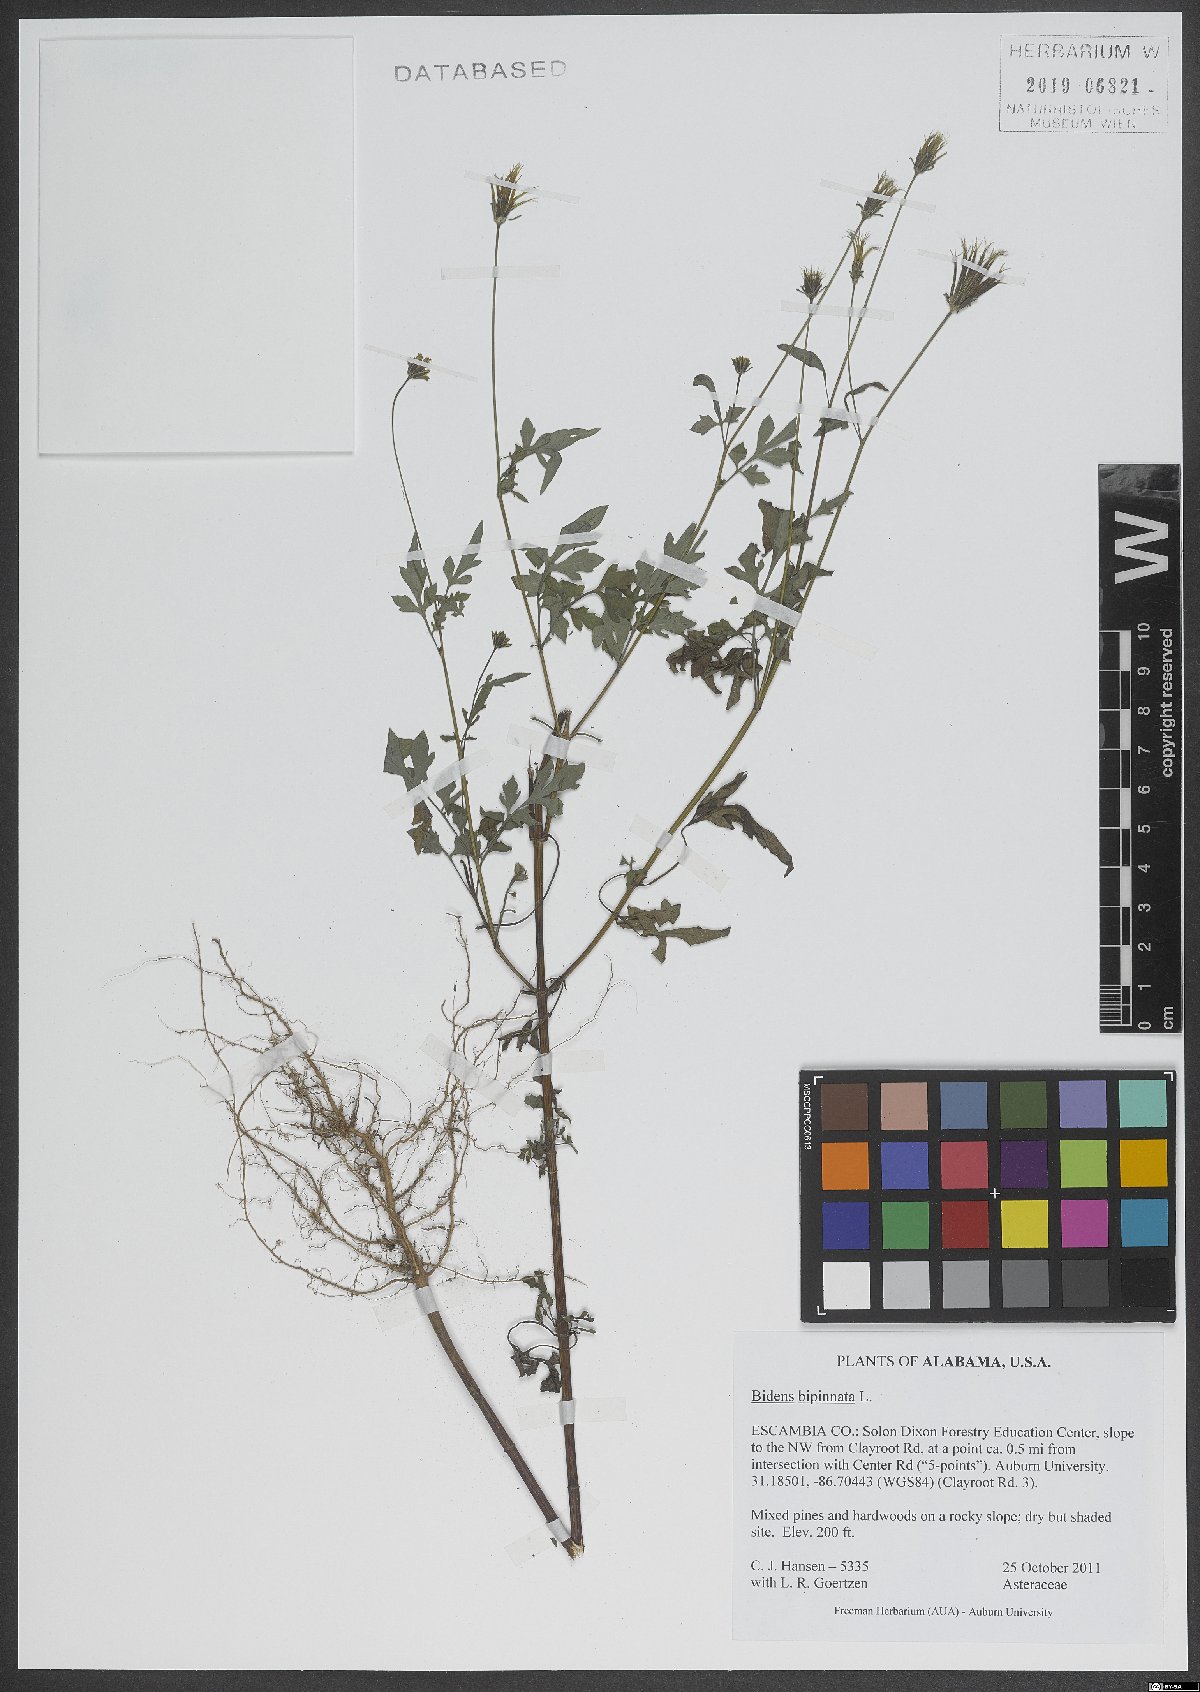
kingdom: Plantae
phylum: Tracheophyta
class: Magnoliopsida
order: Asterales
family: Asteraceae
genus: Bidens
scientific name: Bidens bipinnata
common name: Spanish-needles
